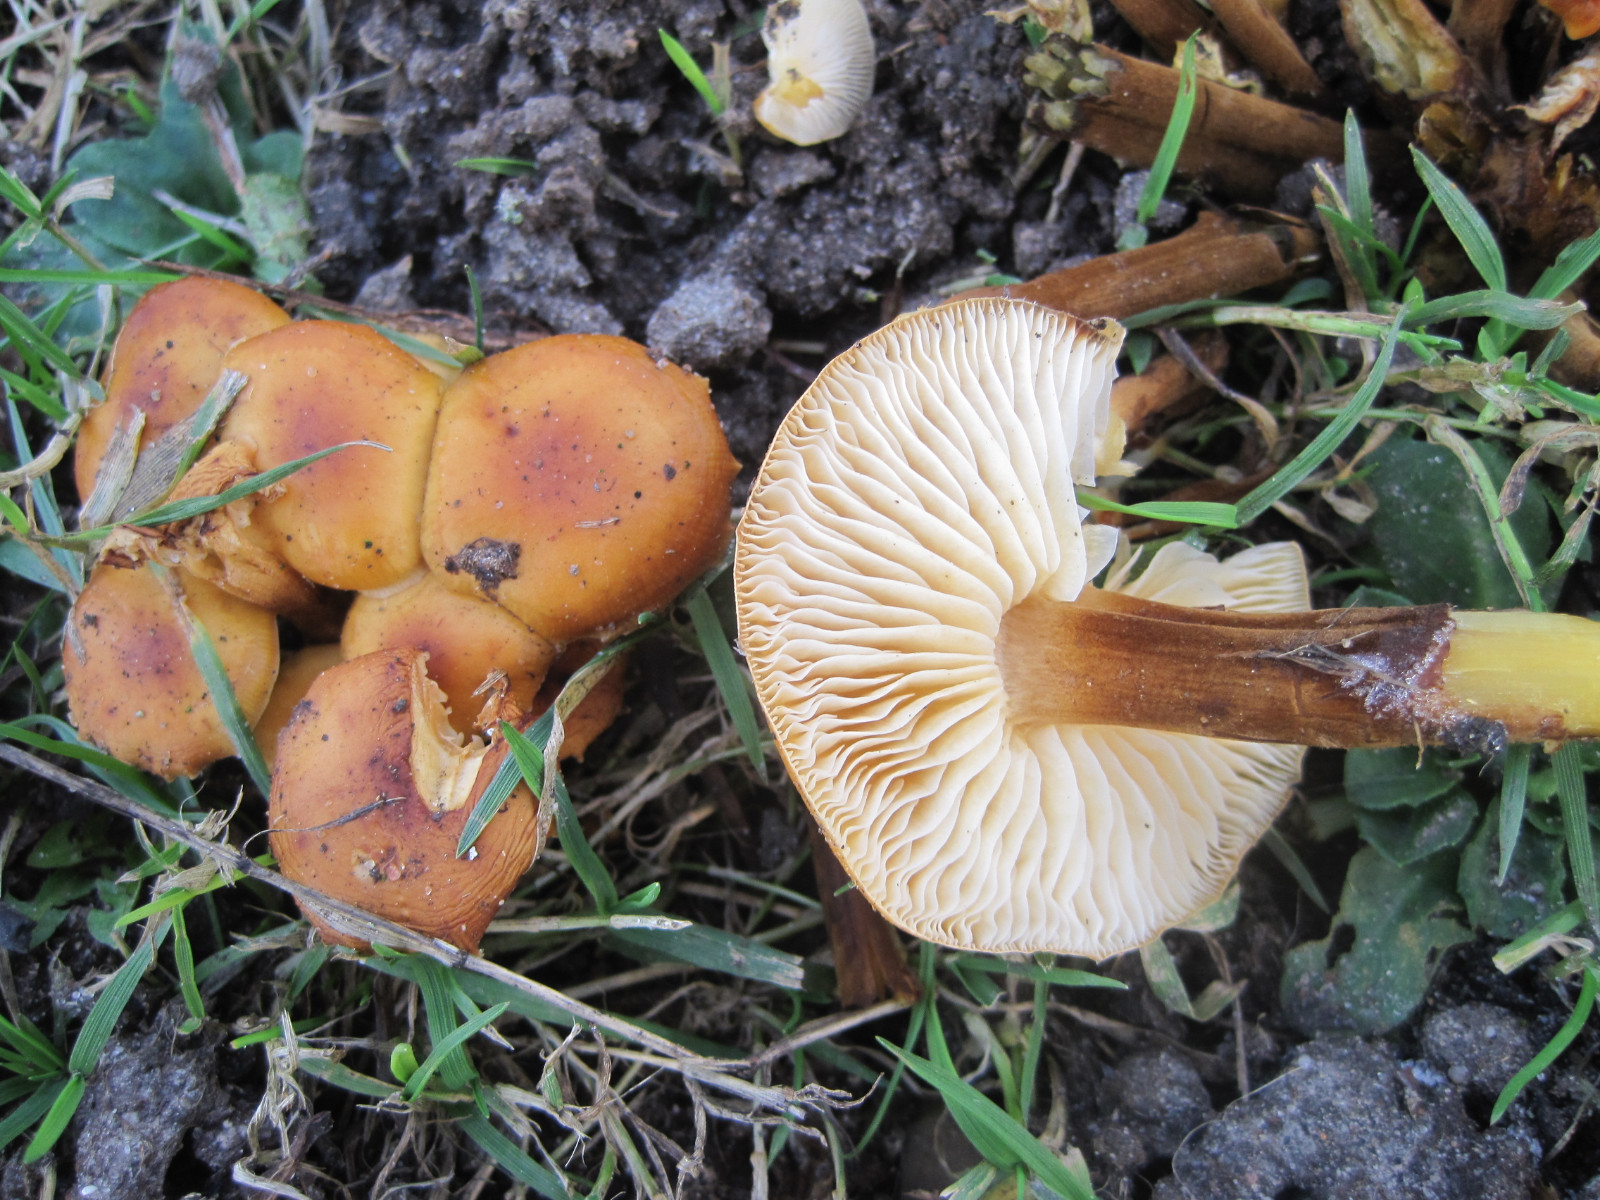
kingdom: Fungi
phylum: Basidiomycota
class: Agaricomycetes
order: Agaricales
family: Physalacriaceae
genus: Flammulina
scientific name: Flammulina velutipes
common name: gul fløjlsfod
